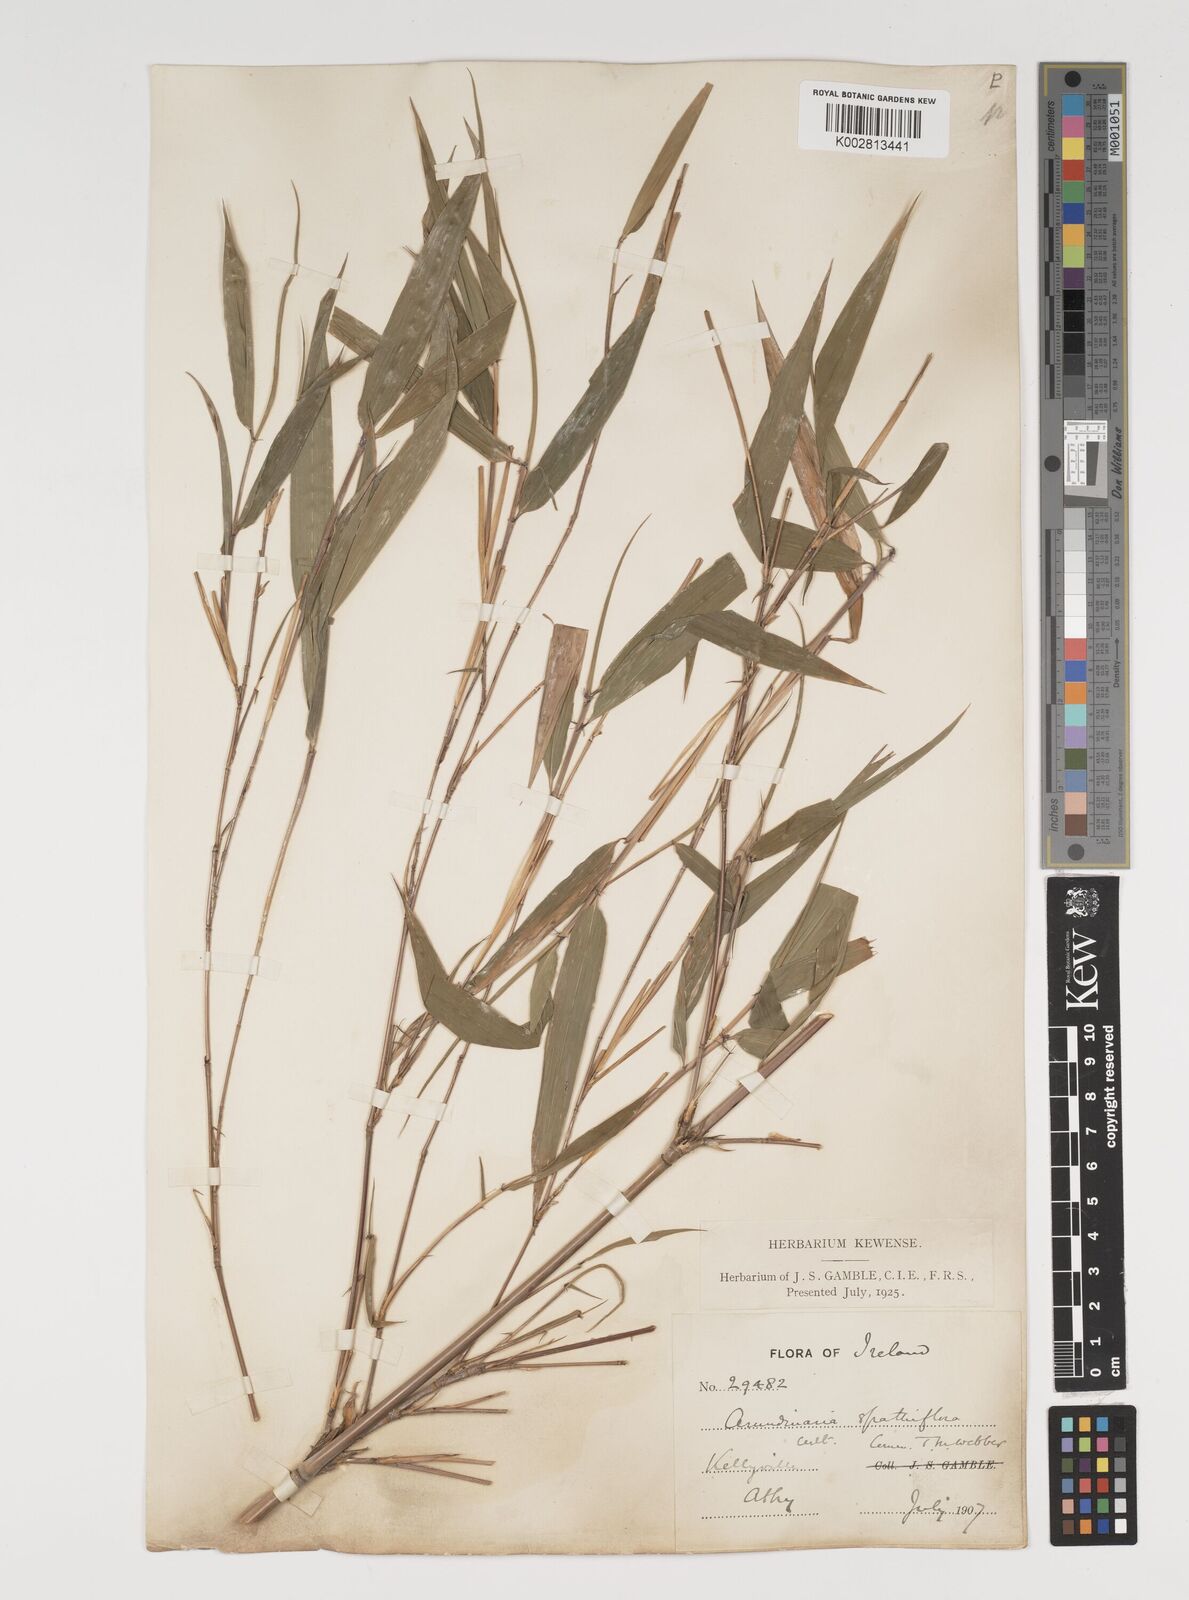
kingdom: Plantae
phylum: Tracheophyta
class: Liliopsida
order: Poales
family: Poaceae
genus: Thamnocalamus
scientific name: Thamnocalamus spathiflorus
